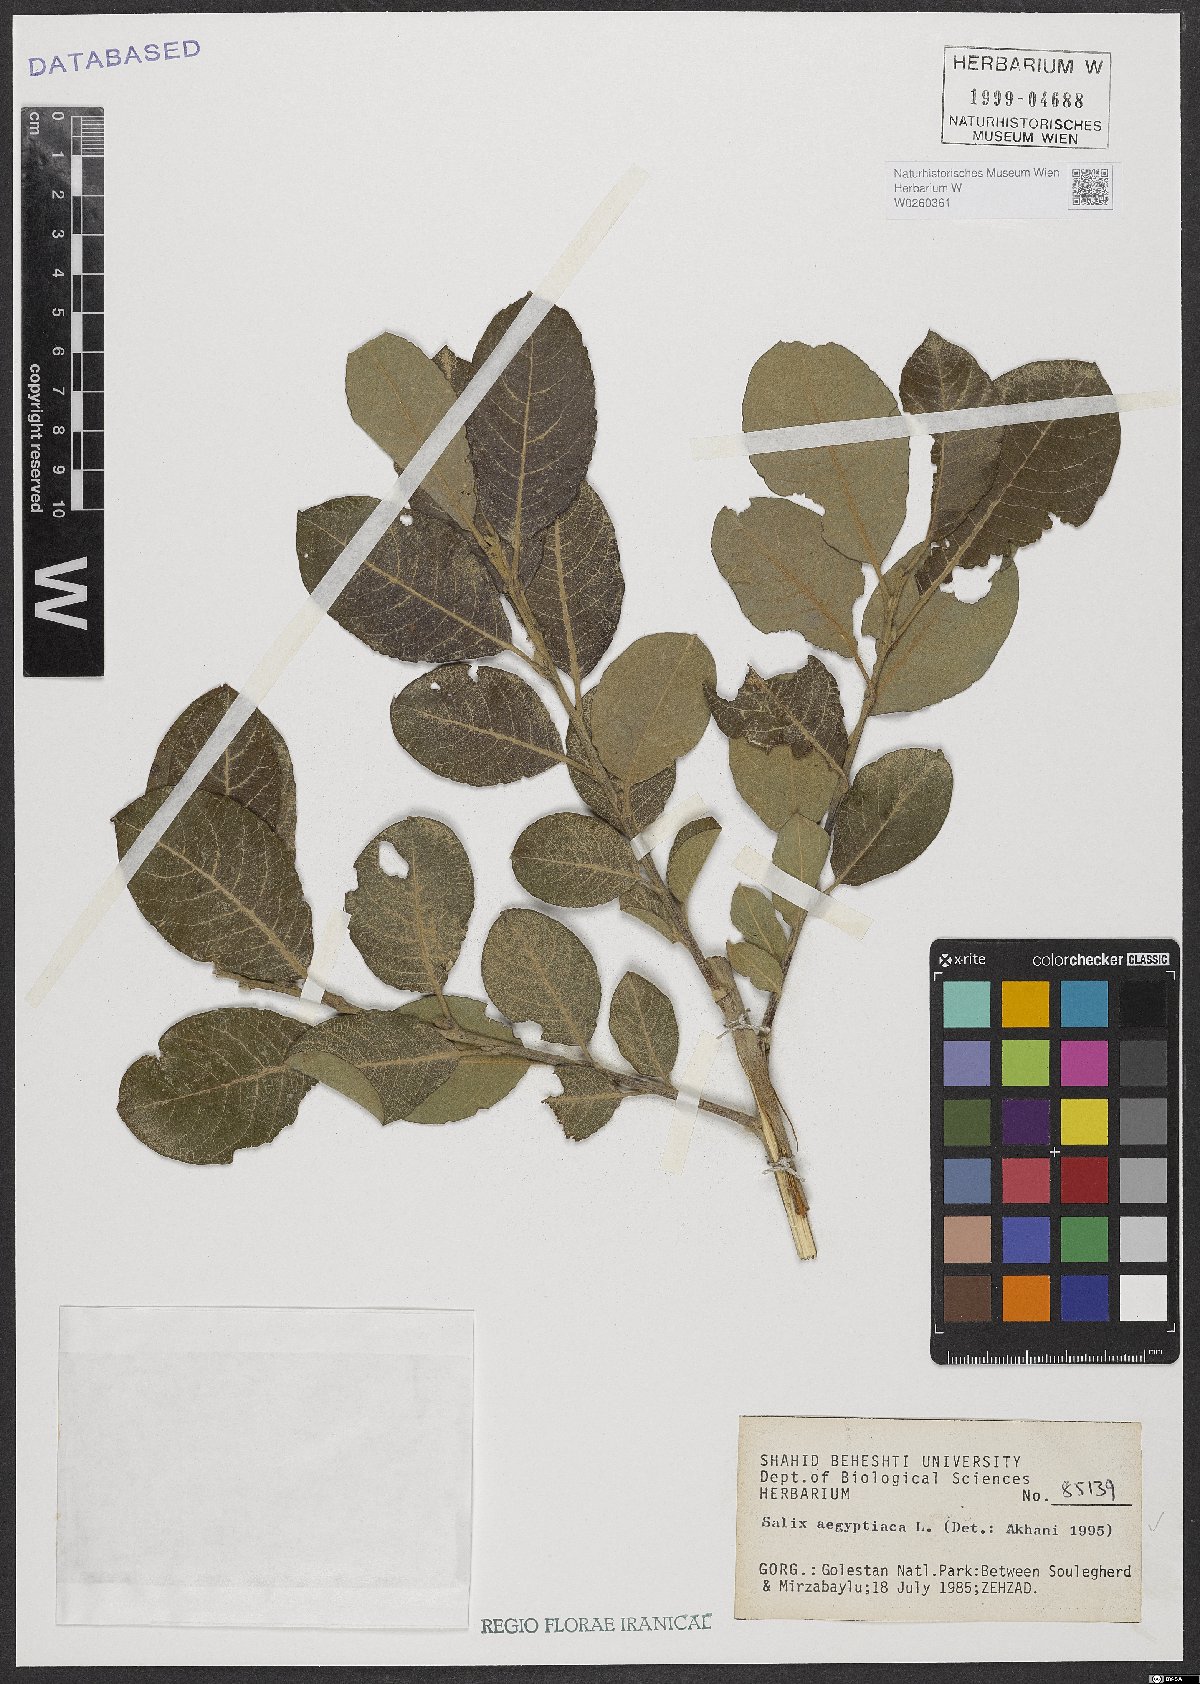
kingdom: Plantae
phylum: Tracheophyta
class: Magnoliopsida
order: Malpighiales
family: Salicaceae
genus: Salix
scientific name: Salix aegyptiaca
